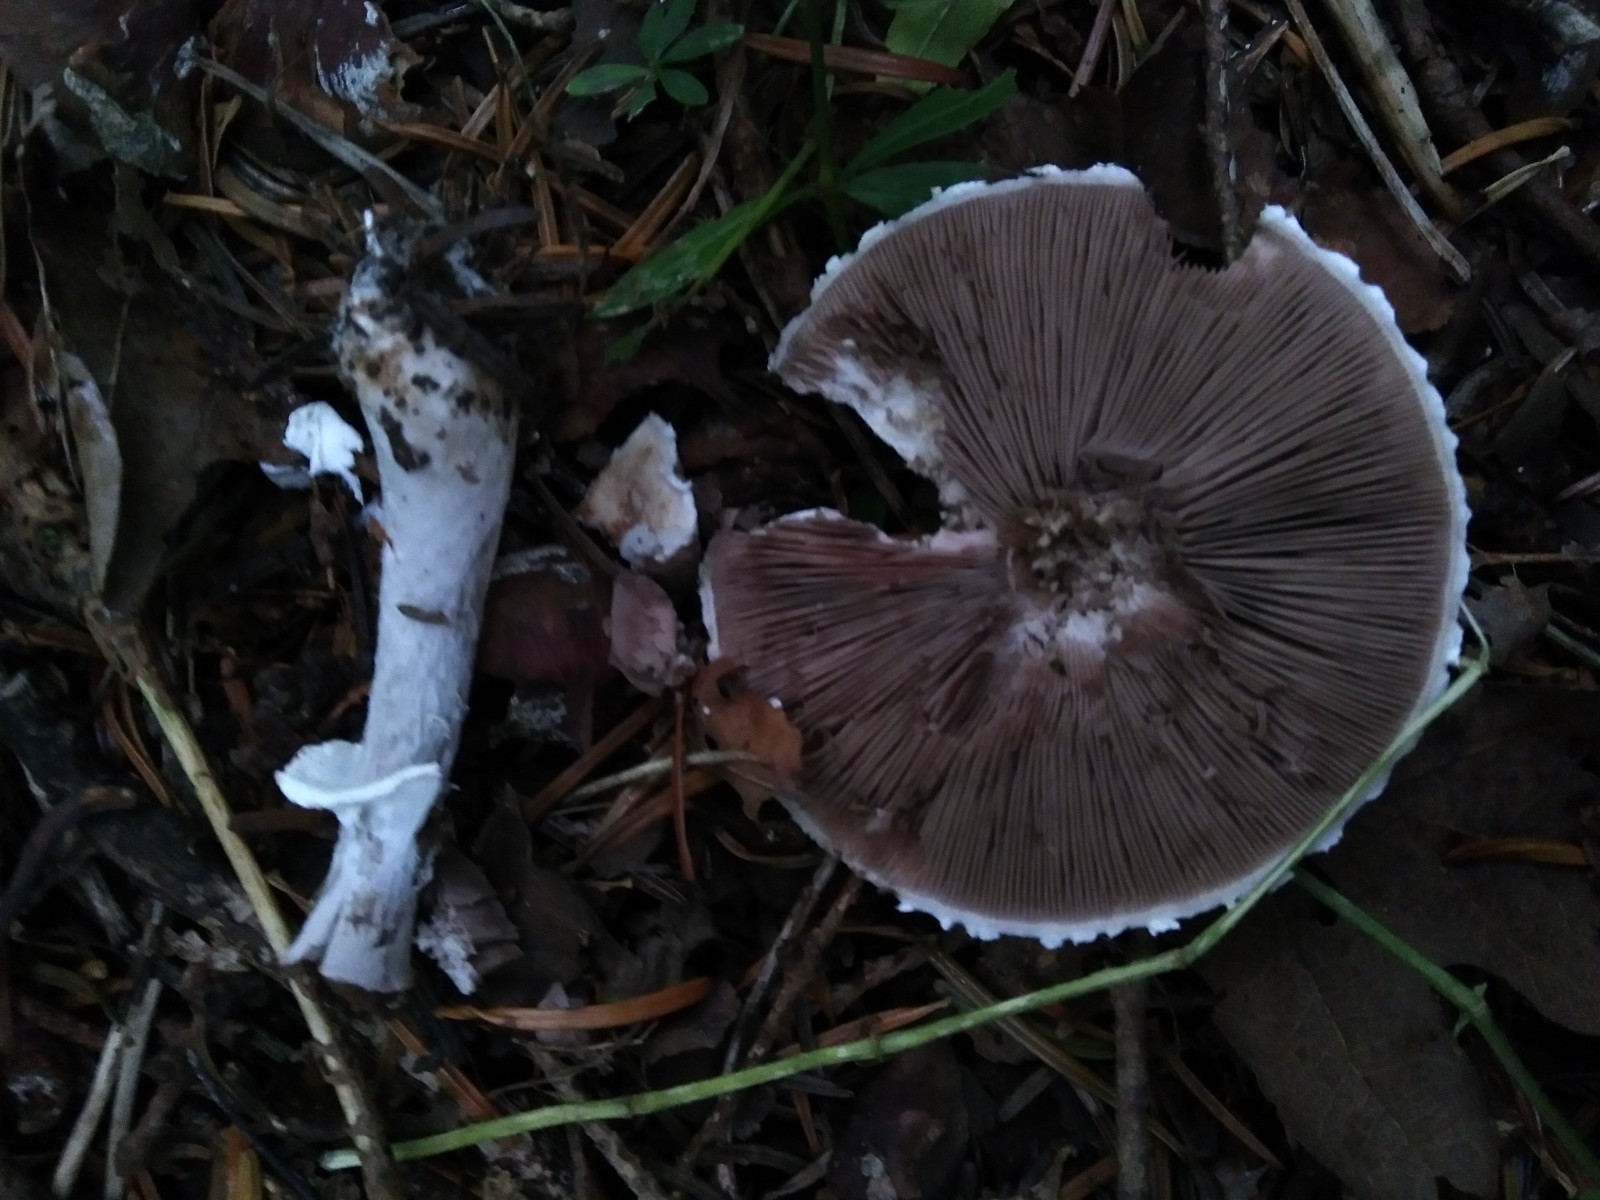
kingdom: Fungi
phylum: Basidiomycota
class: Agaricomycetes
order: Agaricales
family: Agaricaceae
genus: Agaricus
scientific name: Agaricus impudicus
